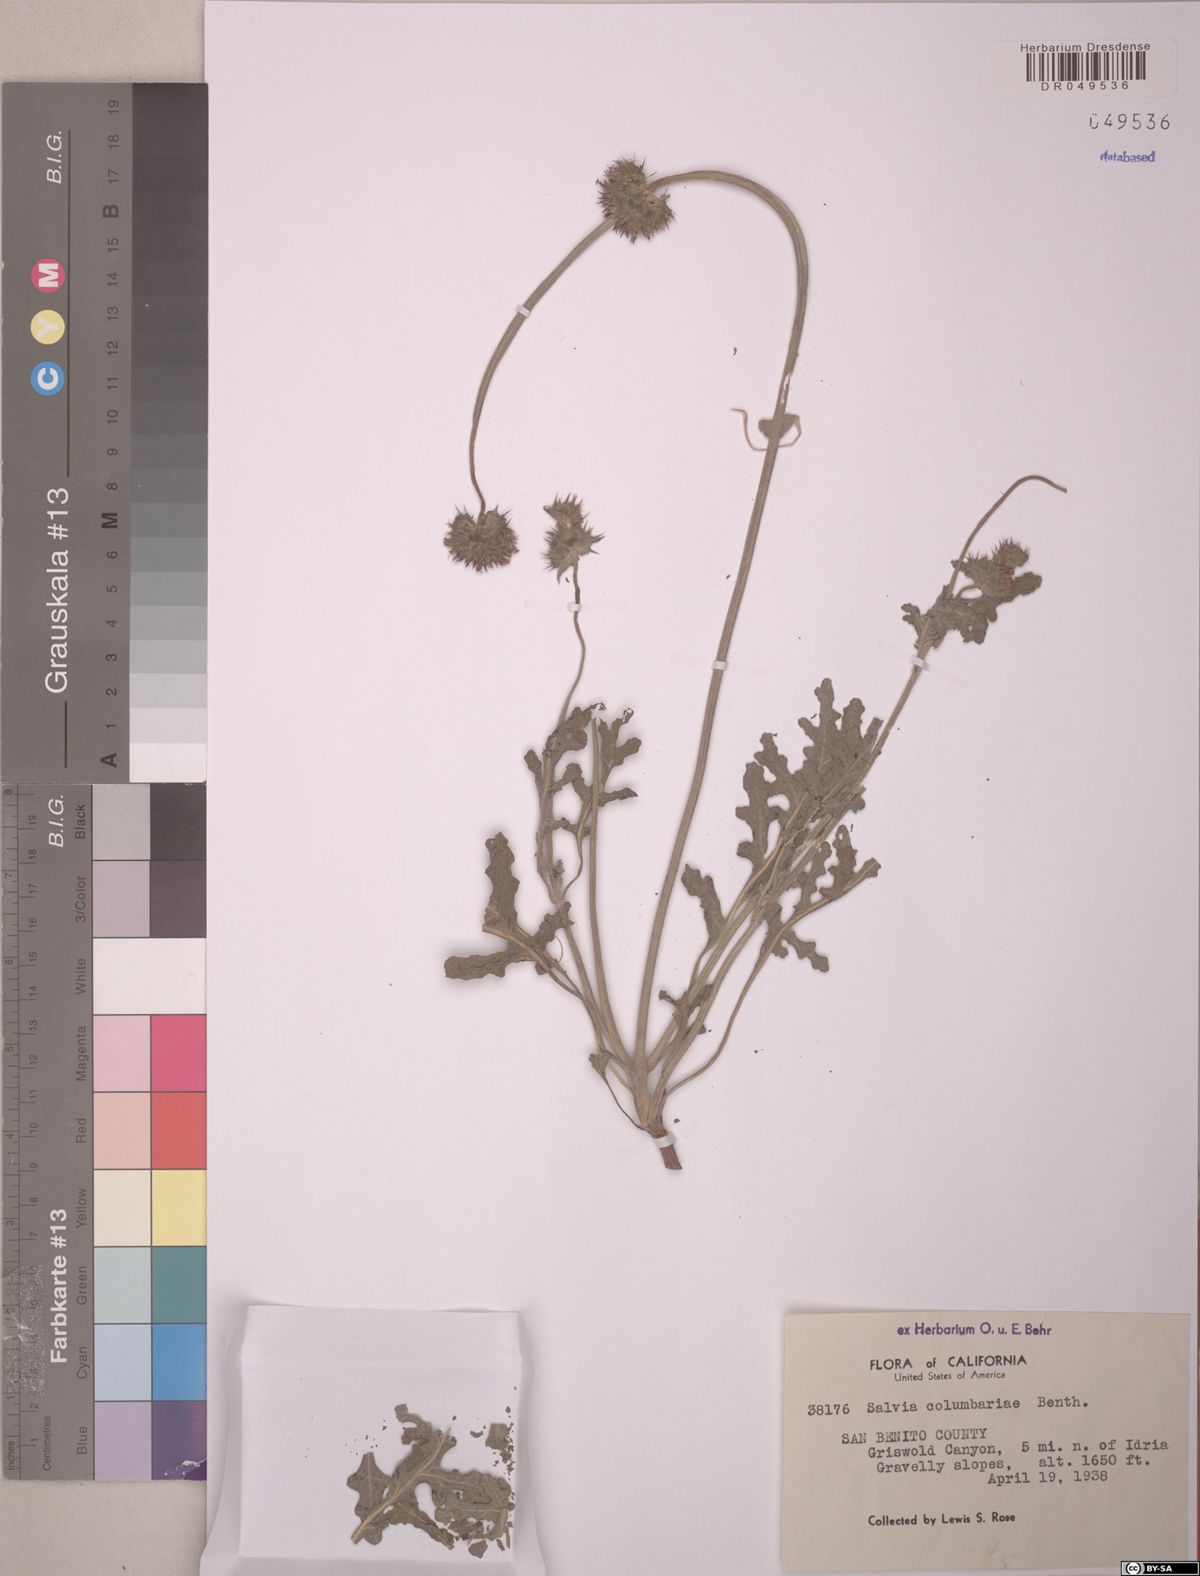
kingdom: Plantae
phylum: Tracheophyta
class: Magnoliopsida
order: Lamiales
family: Lamiaceae
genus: Salvia
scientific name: Salvia columbariae
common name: Chia
